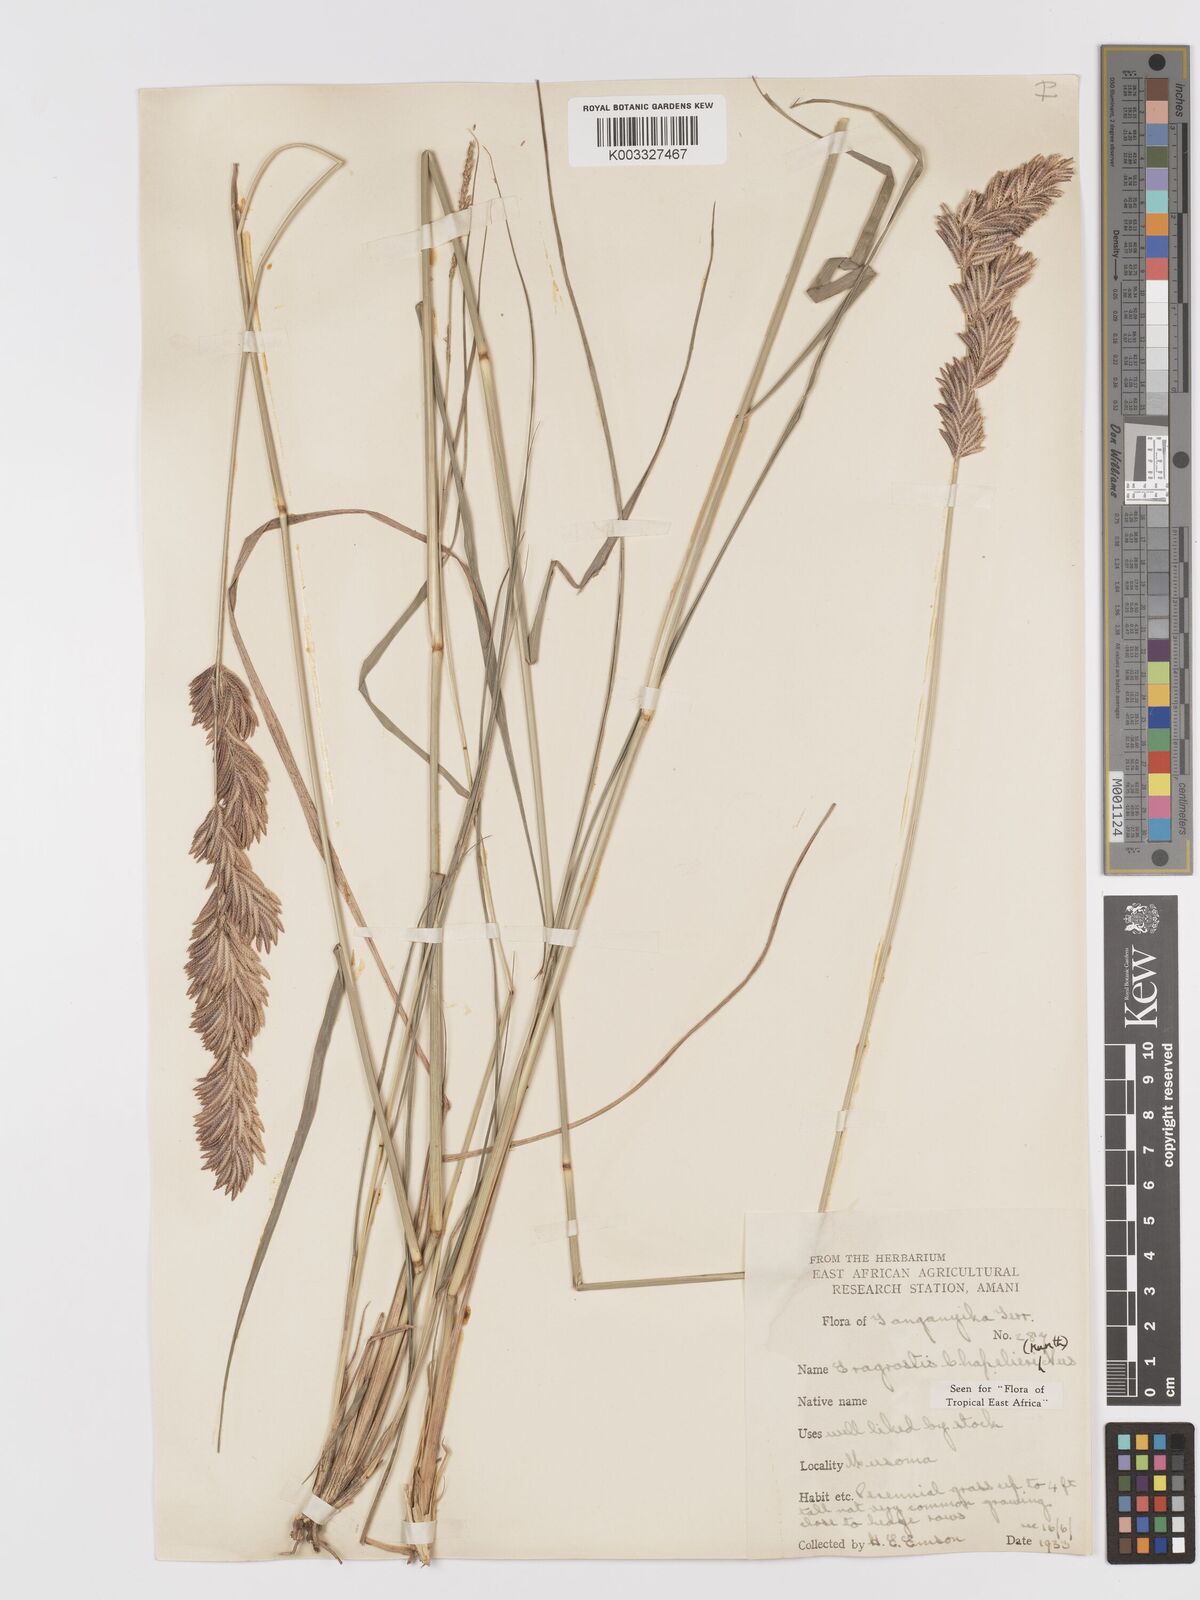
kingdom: Plantae
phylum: Tracheophyta
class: Liliopsida
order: Poales
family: Poaceae
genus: Eragrostis
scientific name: Eragrostis chapelieri
